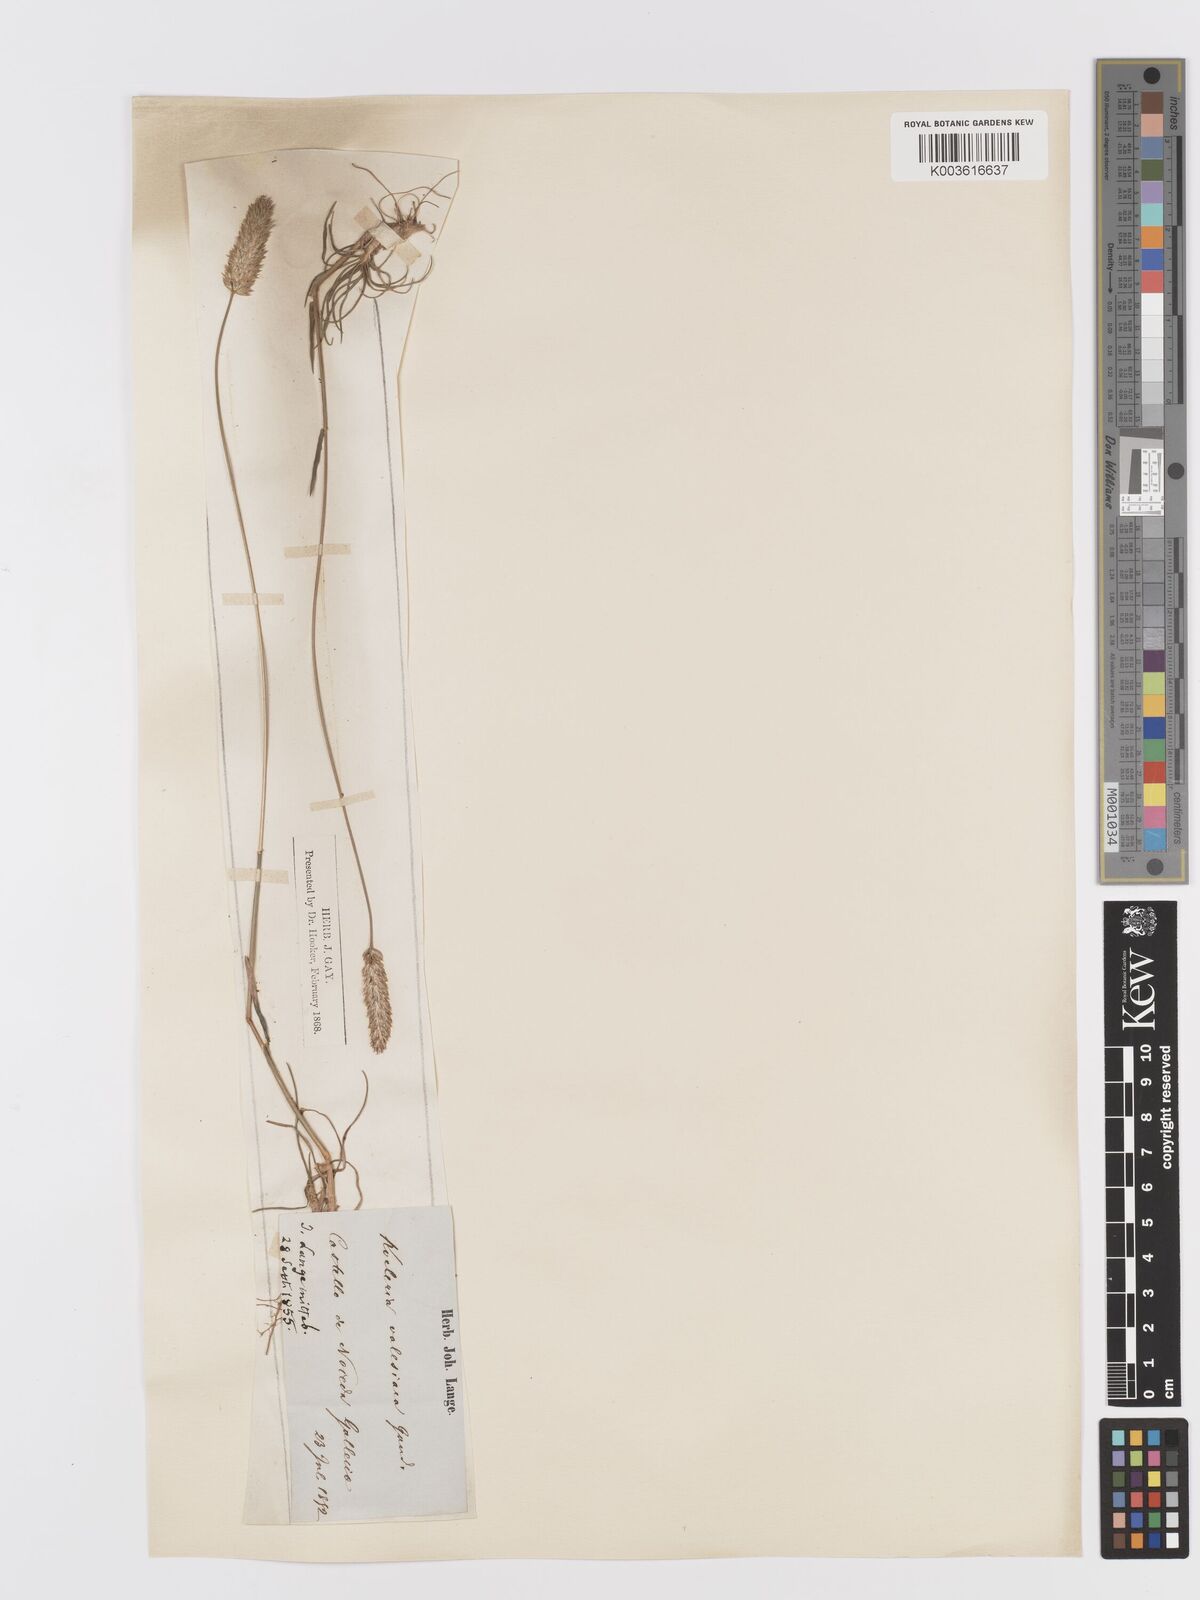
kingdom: Plantae
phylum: Tracheophyta
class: Liliopsida
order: Poales
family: Poaceae
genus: Koeleria
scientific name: Koeleria vallesiana
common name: Somerset hair-grass
